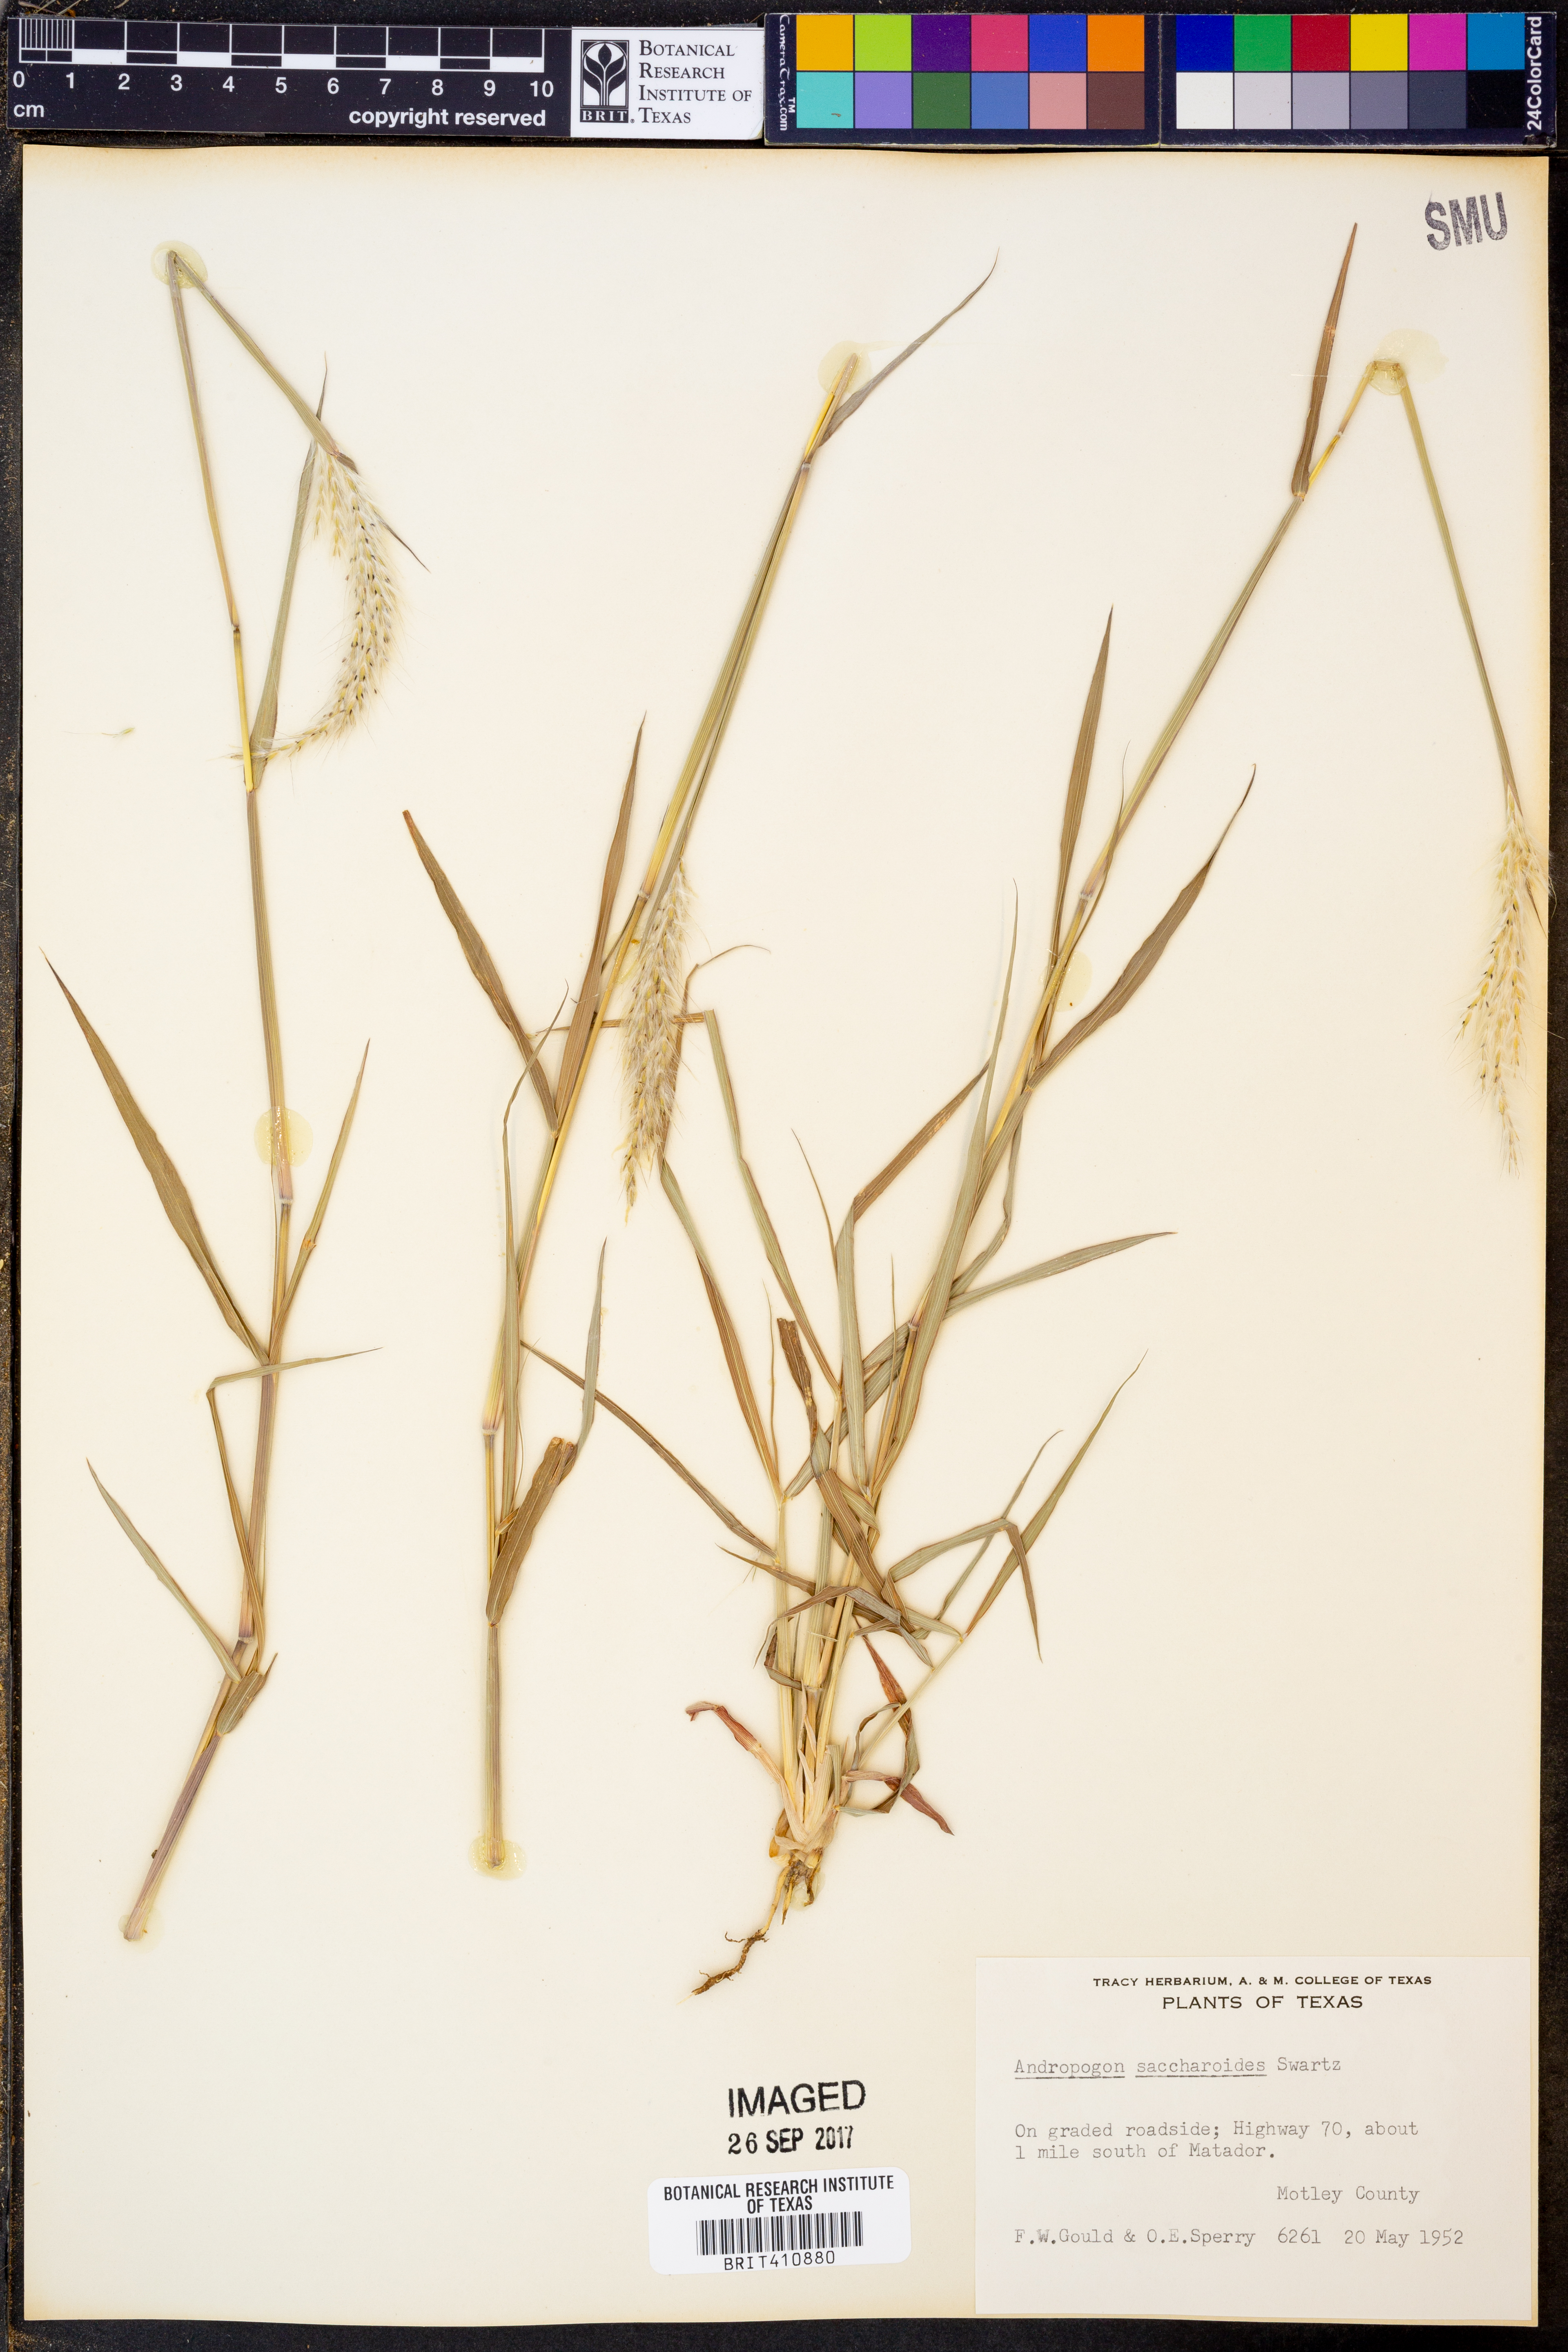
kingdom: Plantae
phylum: Tracheophyta
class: Liliopsida
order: Poales
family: Poaceae
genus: Bothriochloa
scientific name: Bothriochloa saccharoides
